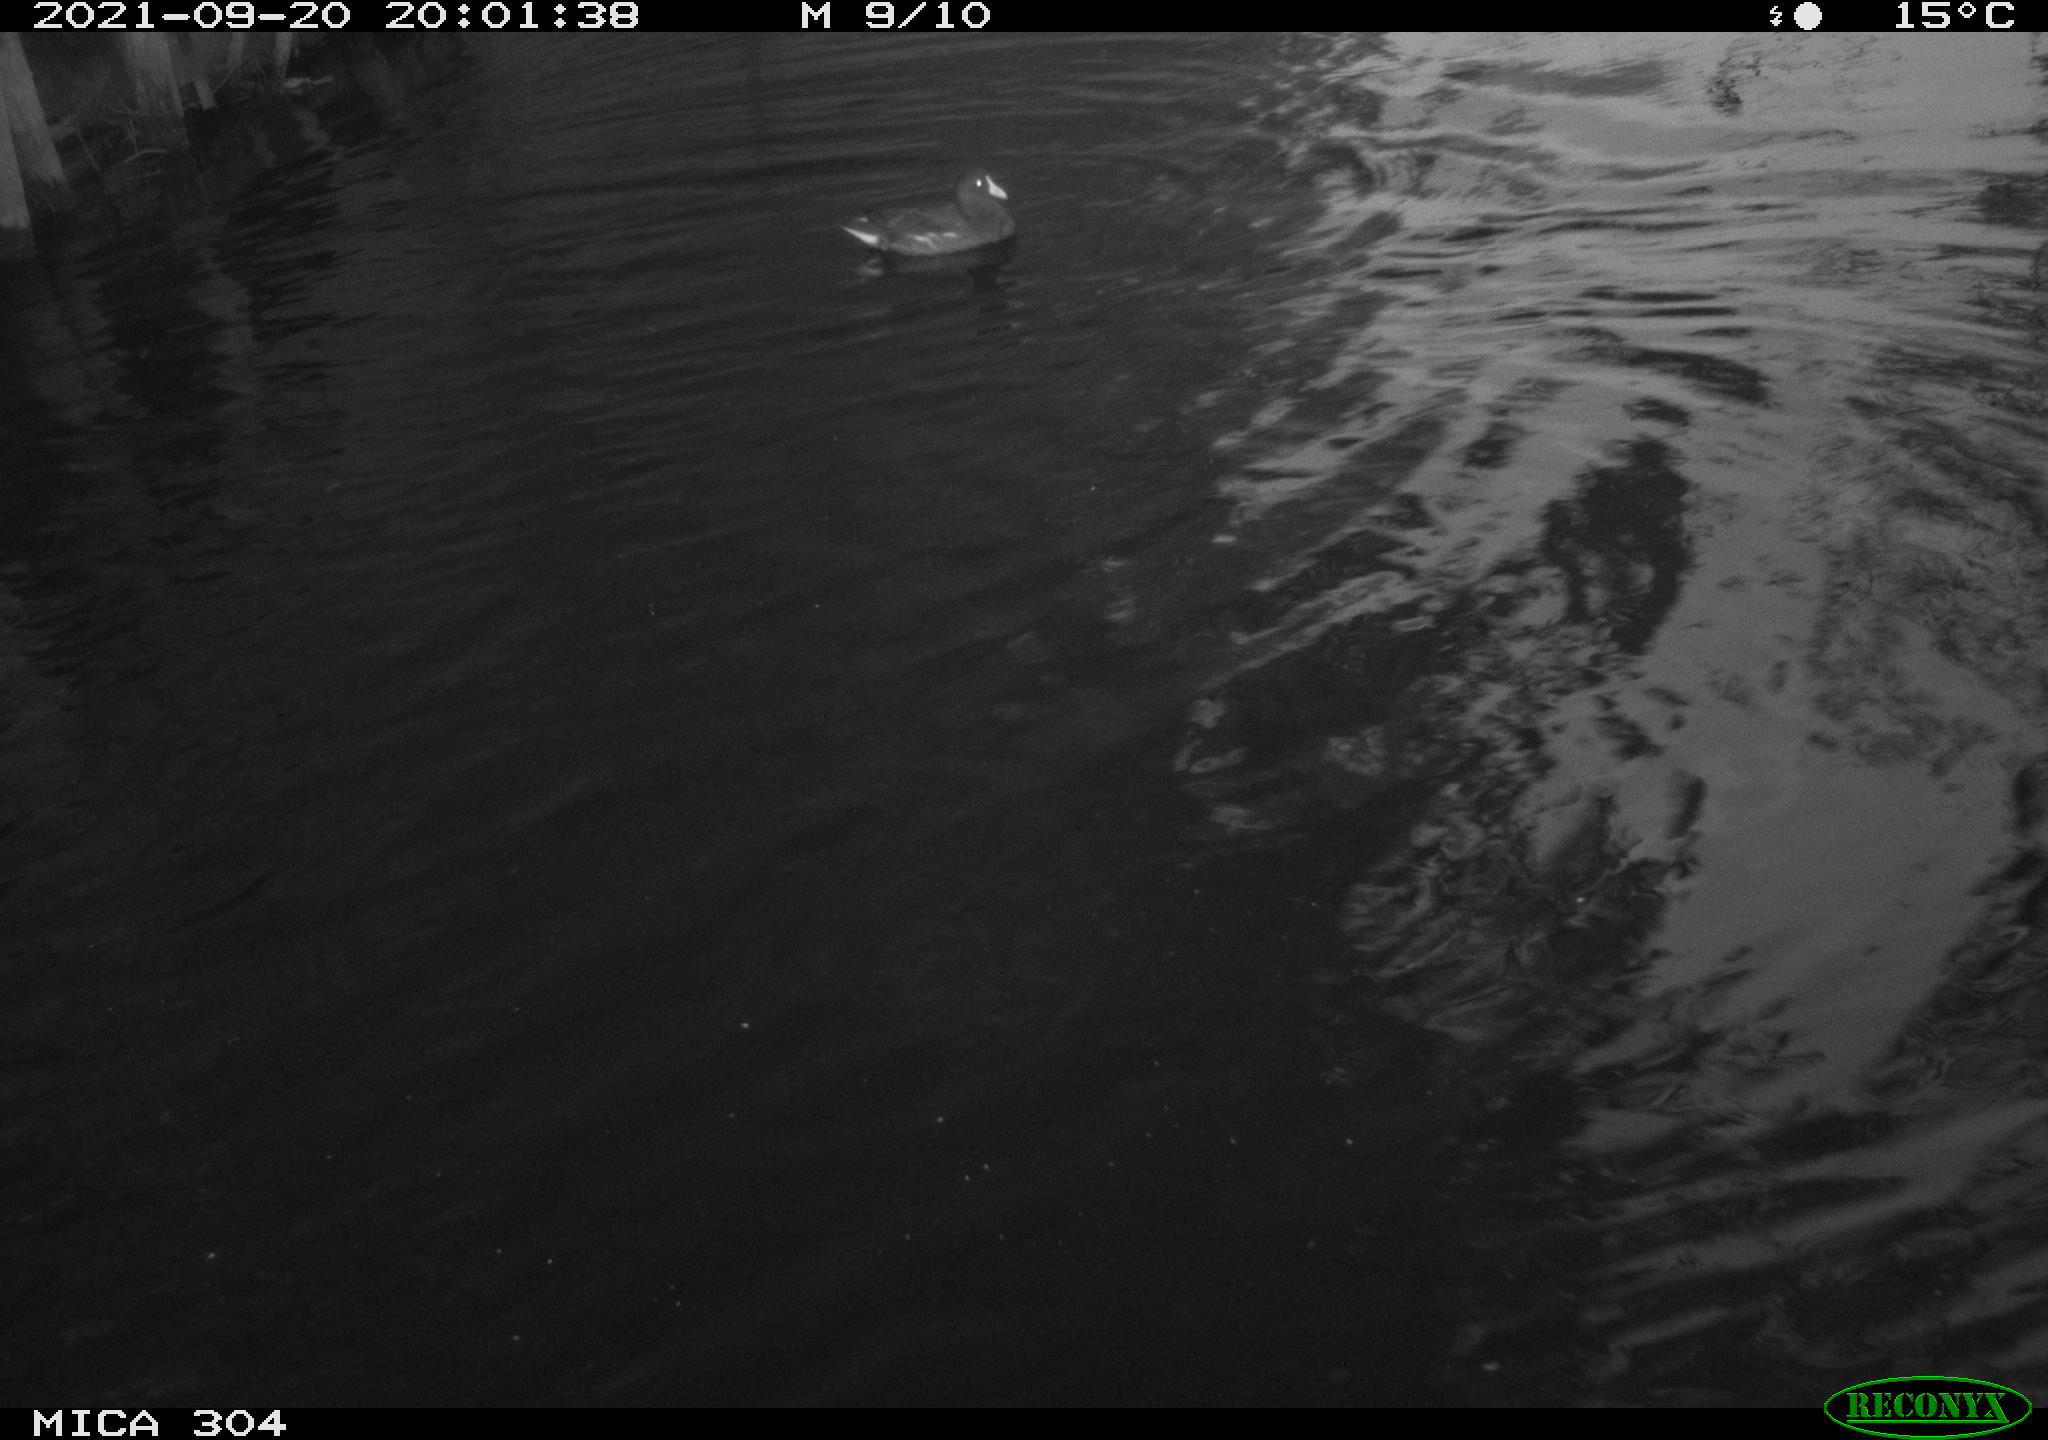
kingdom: Animalia
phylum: Chordata
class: Aves
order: Gruiformes
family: Rallidae
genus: Gallinula
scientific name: Gallinula chloropus
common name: Common moorhen
